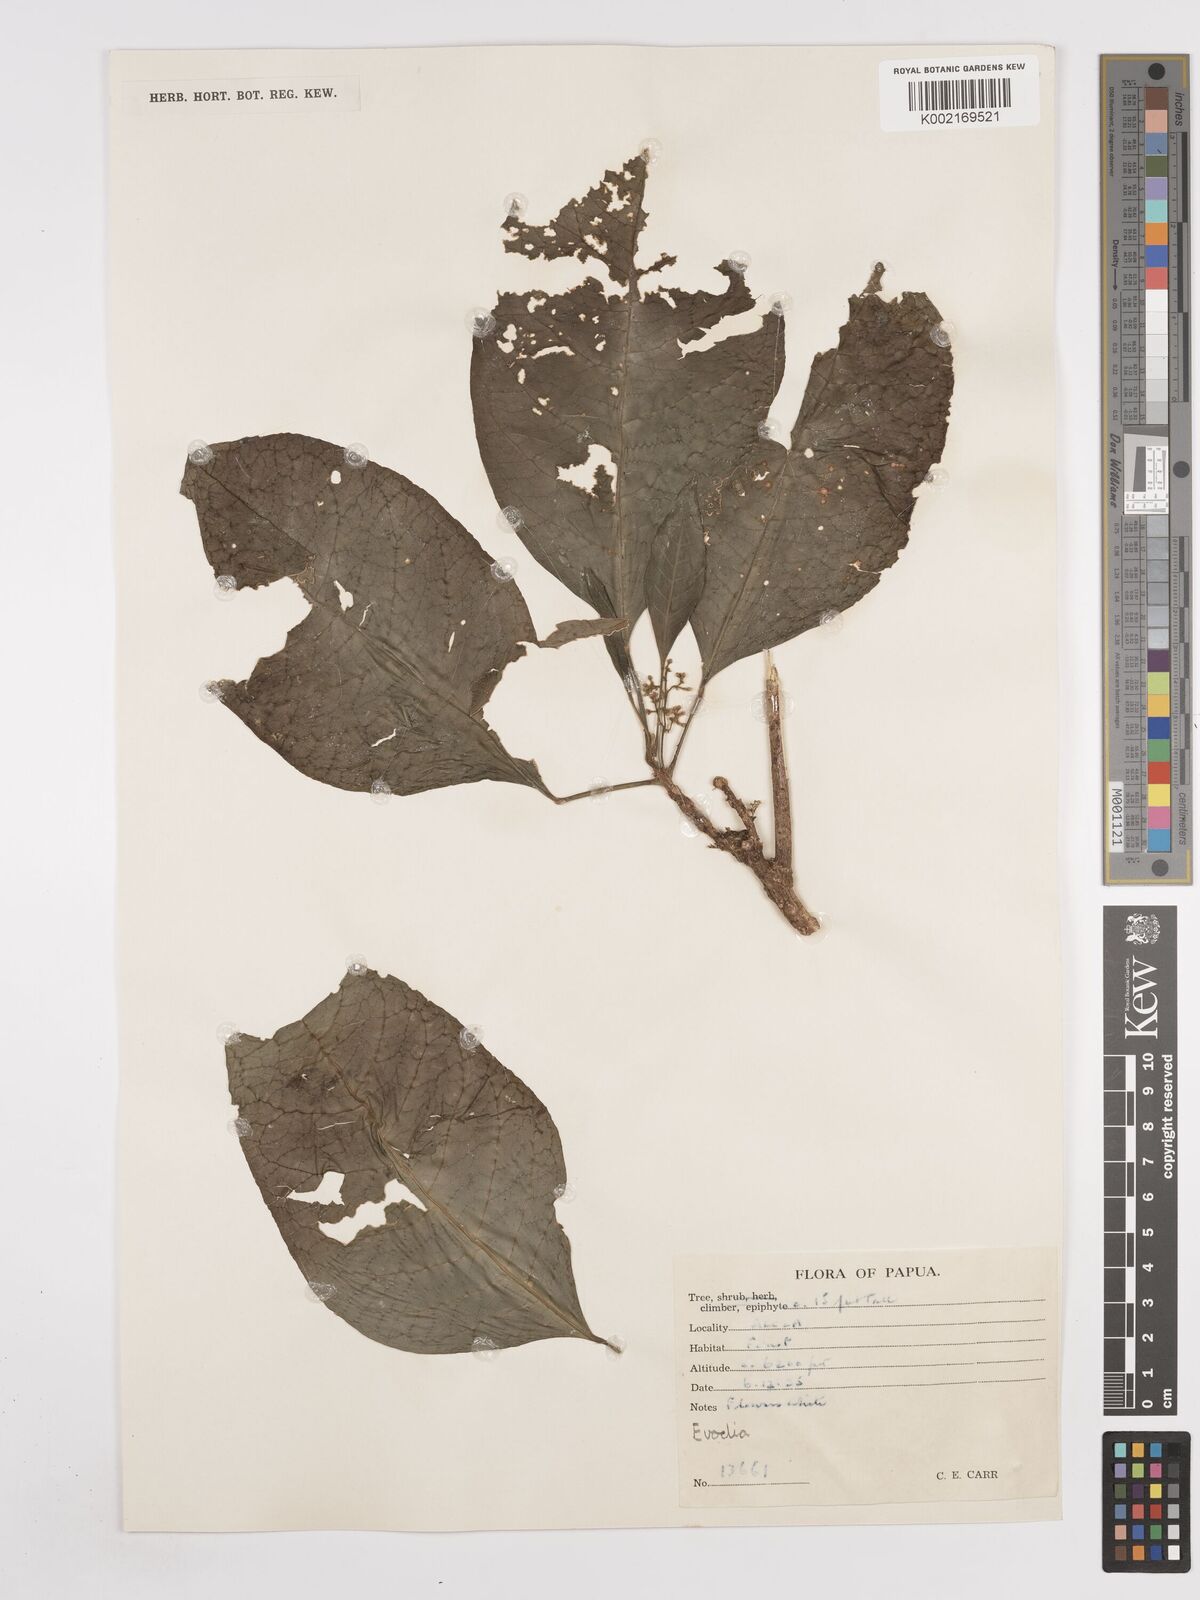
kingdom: Plantae
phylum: Tracheophyta
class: Magnoliopsida
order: Sapindales
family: Rutaceae
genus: Euodia
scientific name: Euodia
